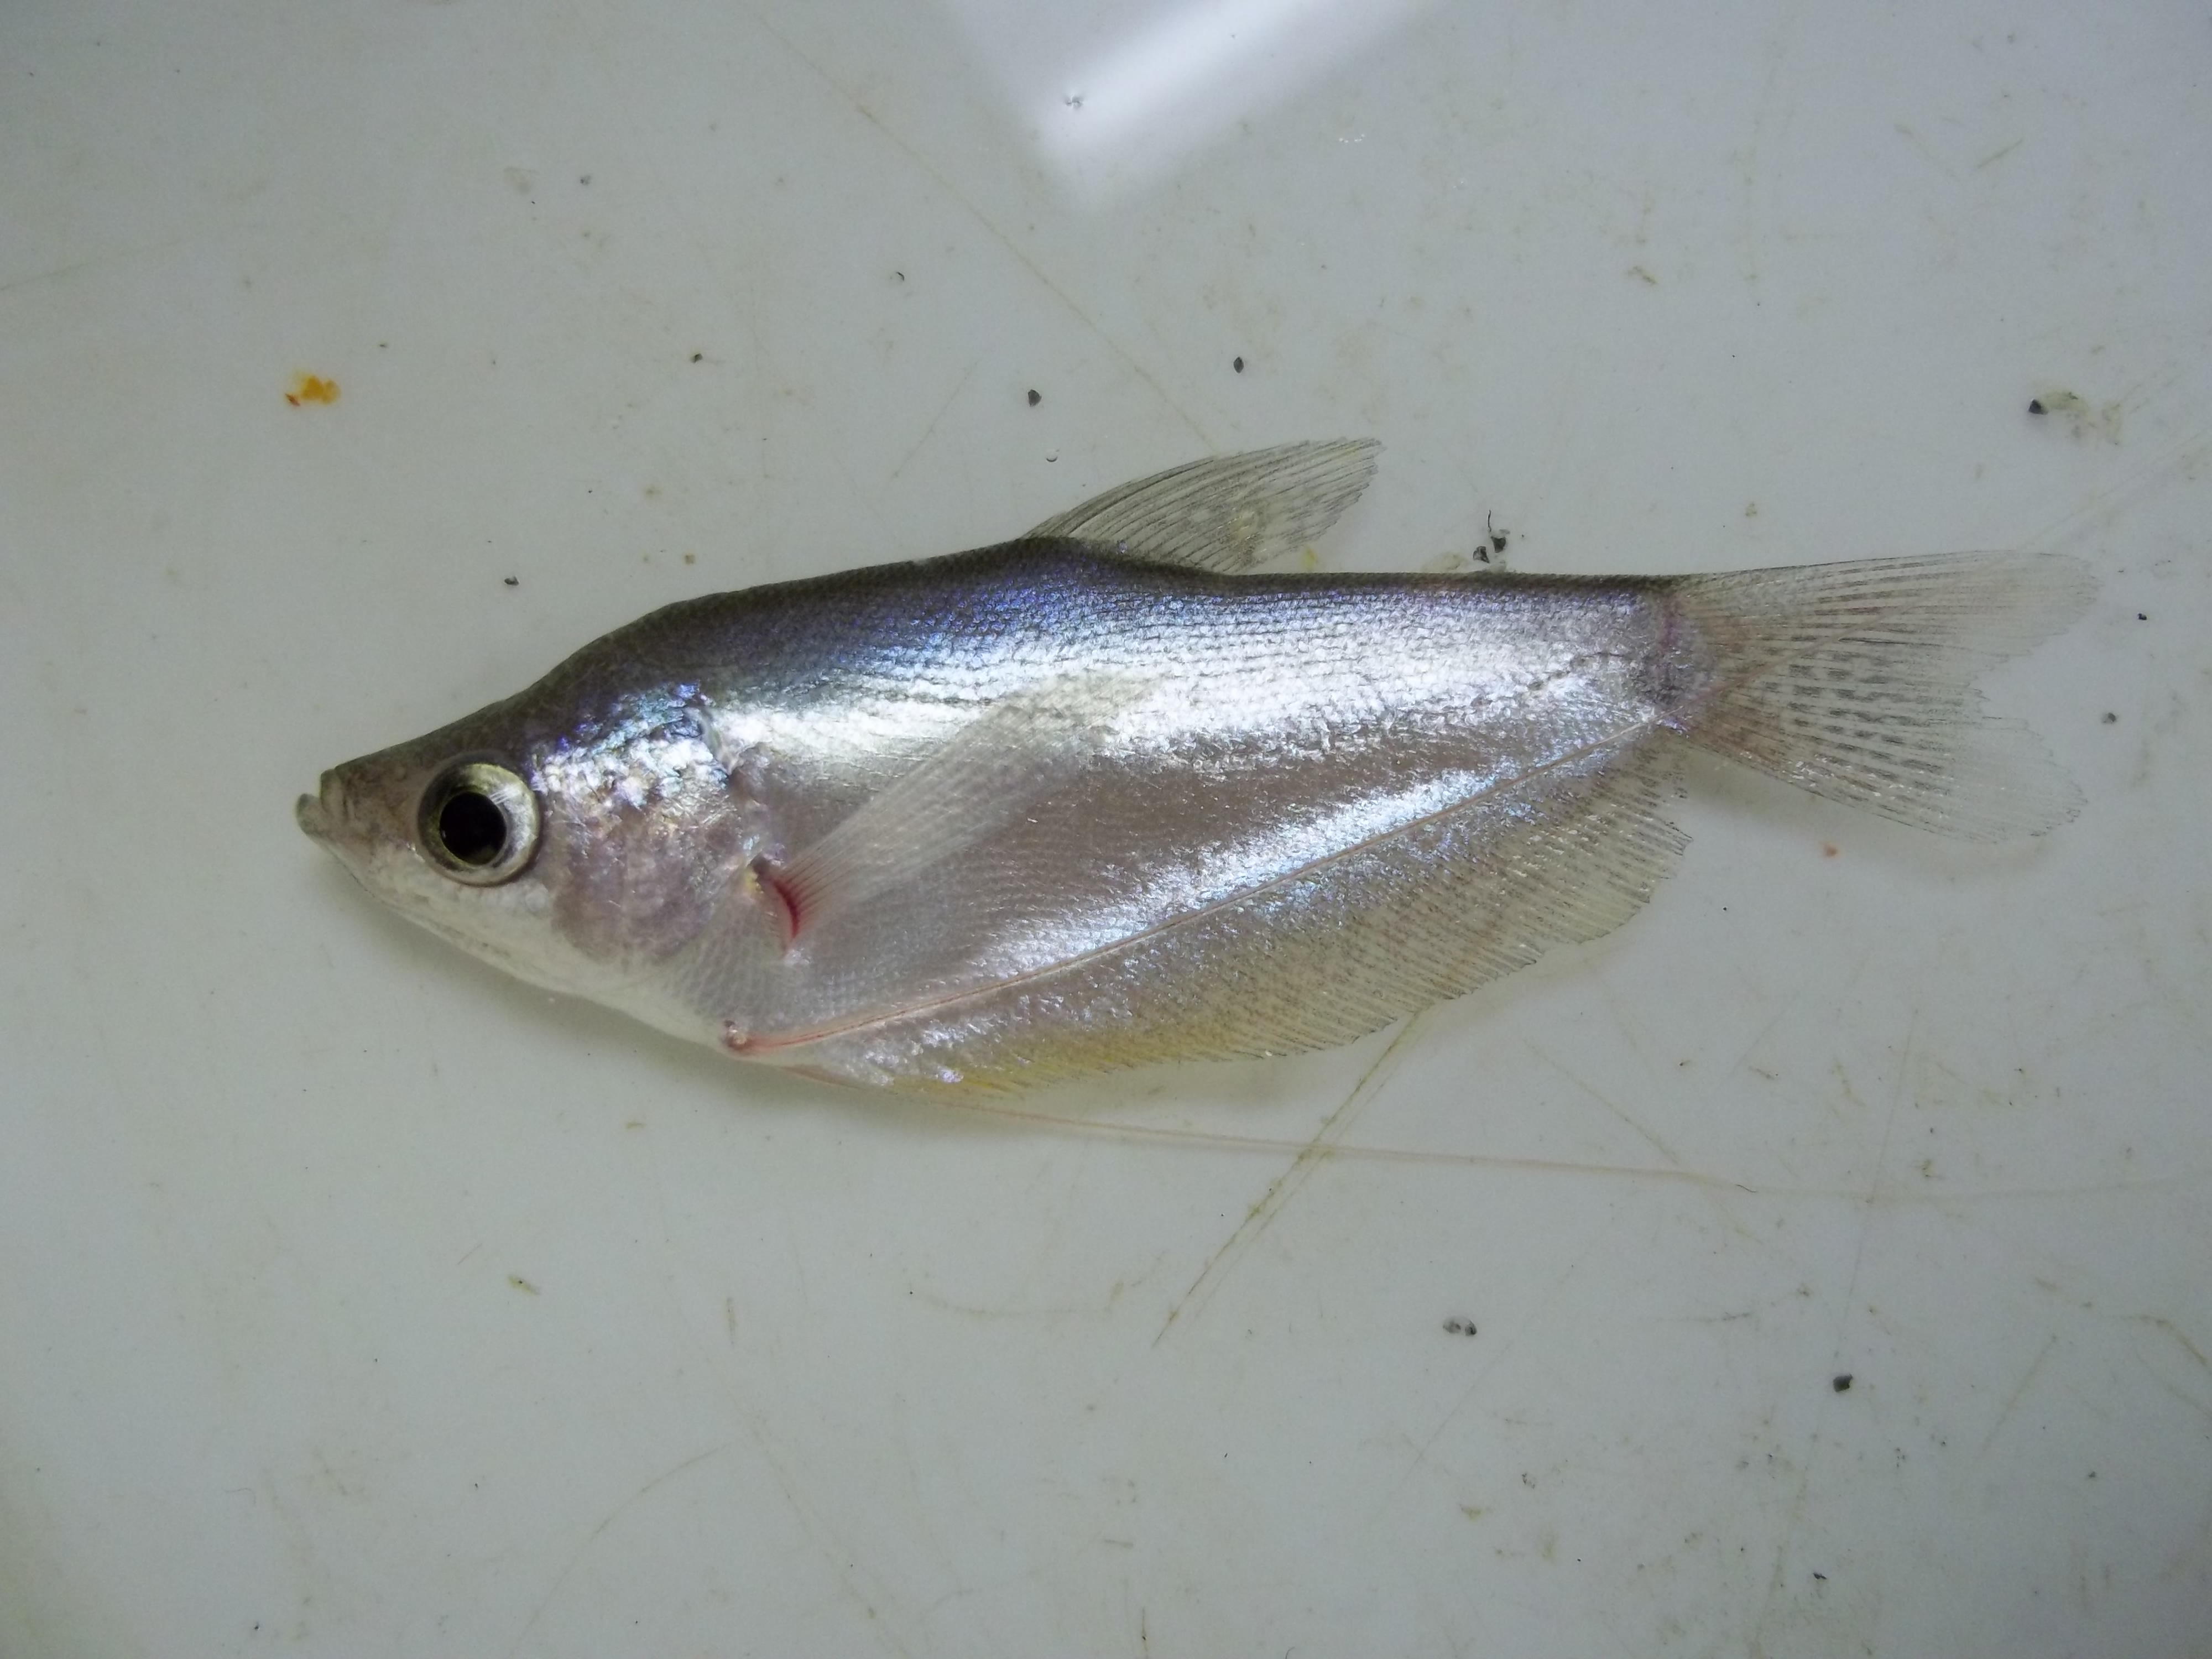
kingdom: Animalia
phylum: Chordata
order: Perciformes
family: Osphronemidae
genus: Trichopodus
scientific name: Trichopodus microlepis
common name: Moonbeam gourami
